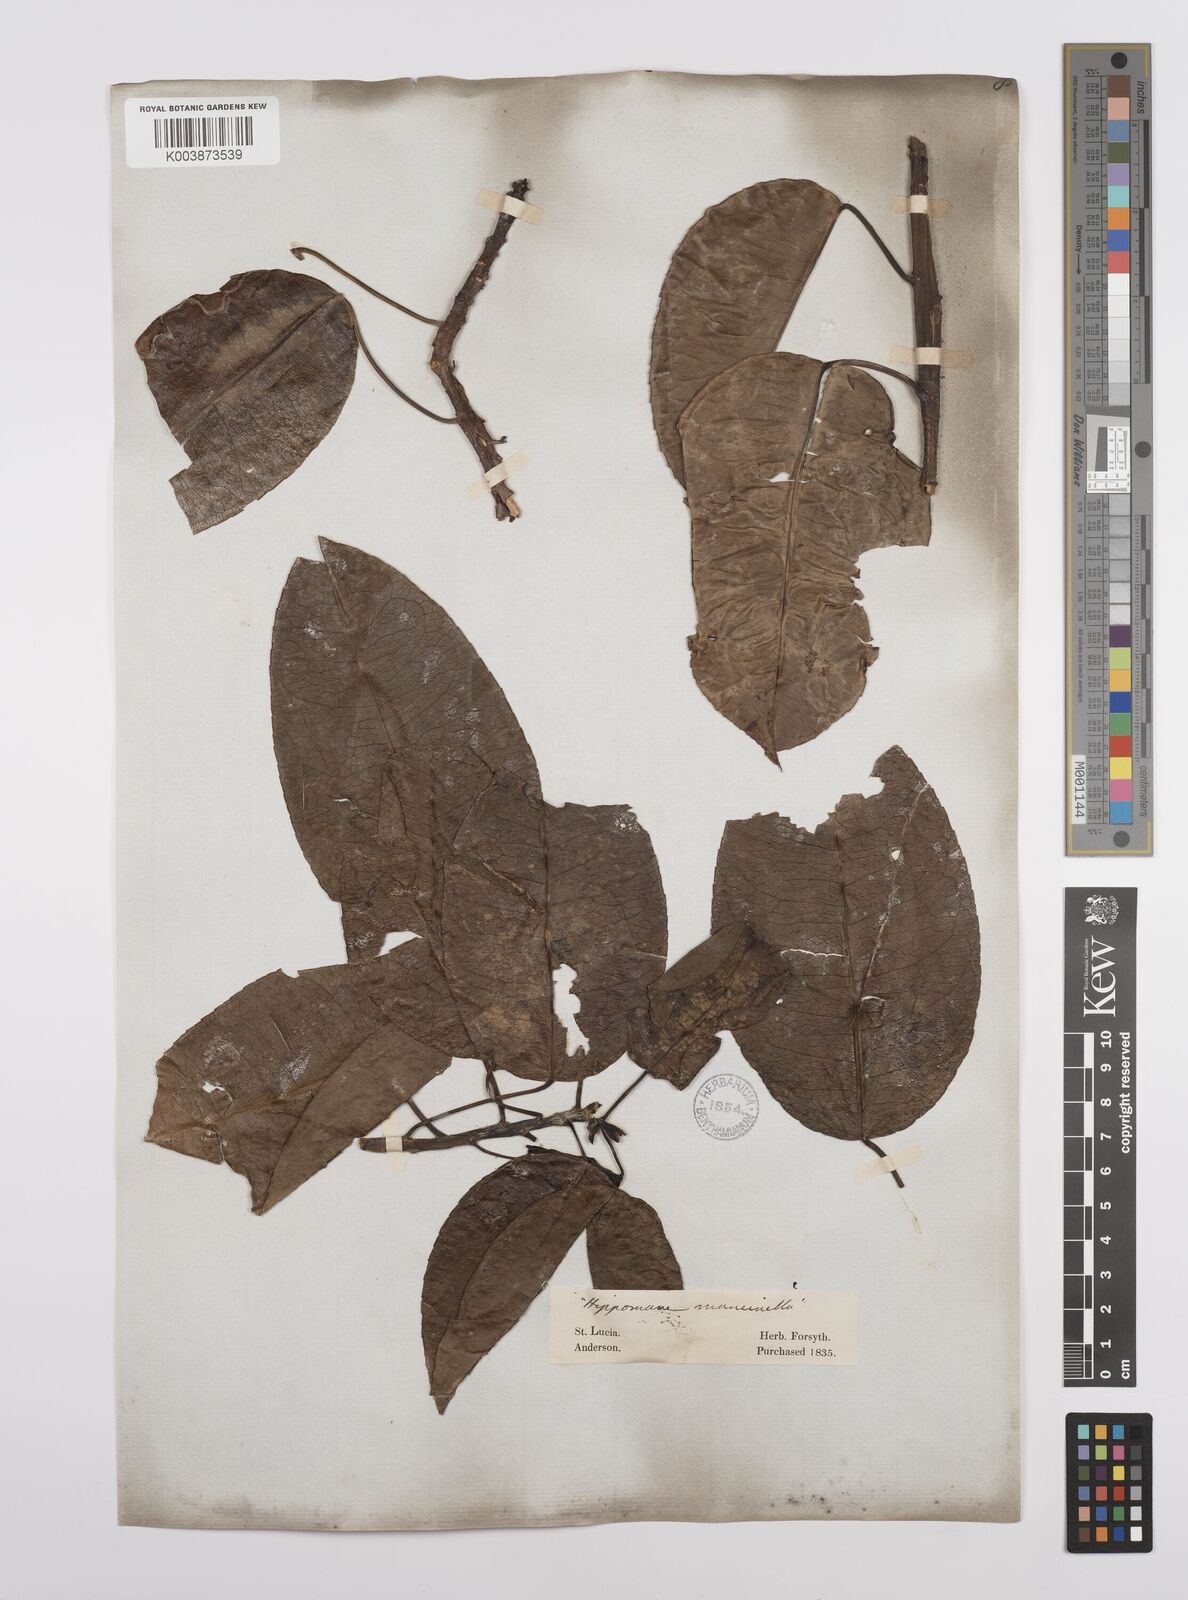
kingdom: Plantae
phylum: Tracheophyta
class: Magnoliopsida
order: Malpighiales
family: Euphorbiaceae
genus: Hippomane
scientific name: Hippomane mancinella
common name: Manchineel
